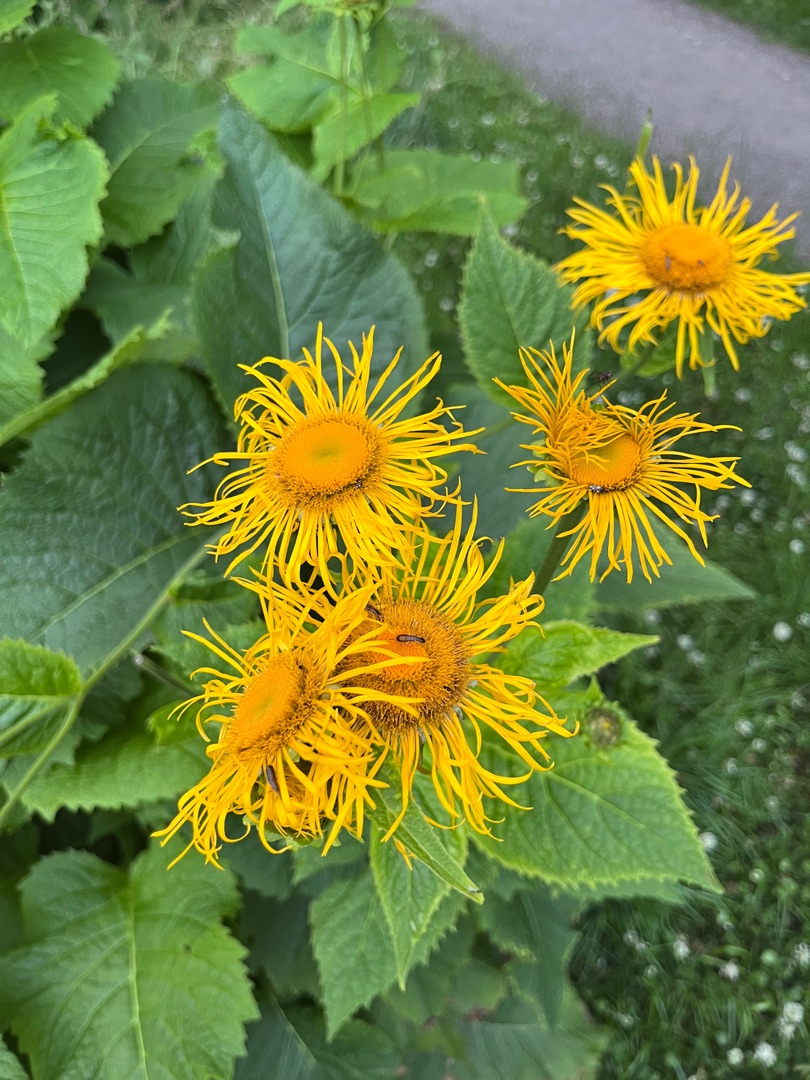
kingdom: Plantae
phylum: Tracheophyta
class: Magnoliopsida
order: Asterales
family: Asteraceae
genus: Telekia
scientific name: Telekia speciosa
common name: Tusindstråle
